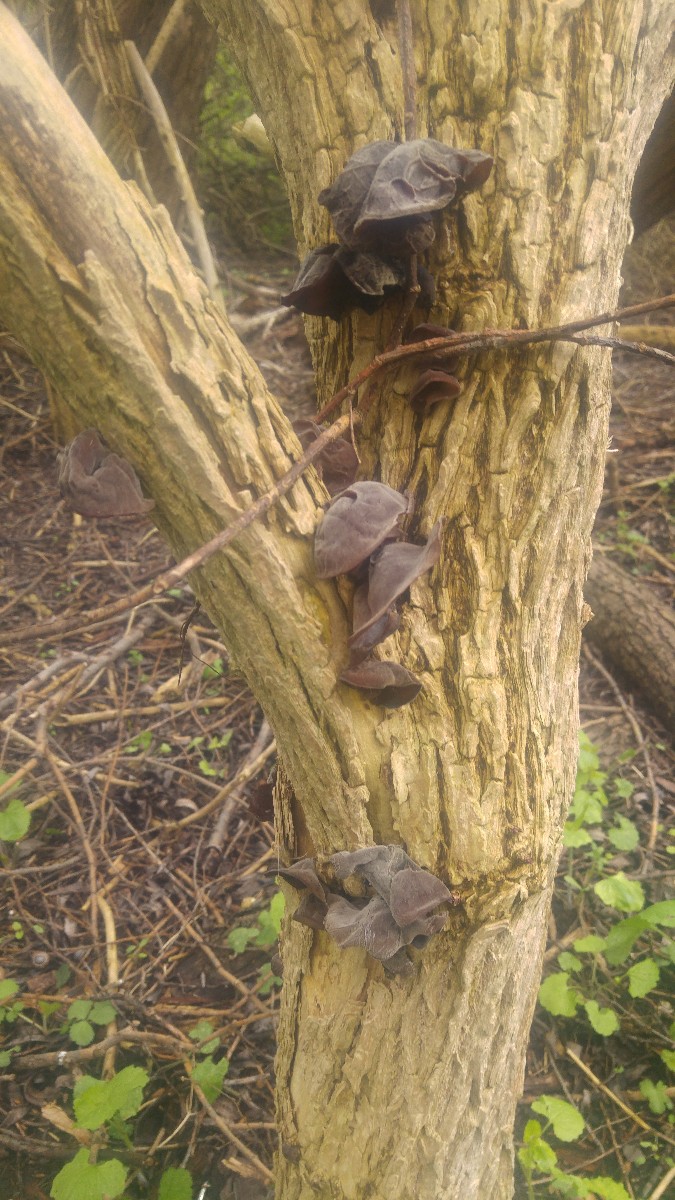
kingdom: Fungi
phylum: Basidiomycota
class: Agaricomycetes
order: Auriculariales
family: Auriculariaceae
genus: Auricularia
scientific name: Auricularia auricula-judae
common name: almindelig judasøre
